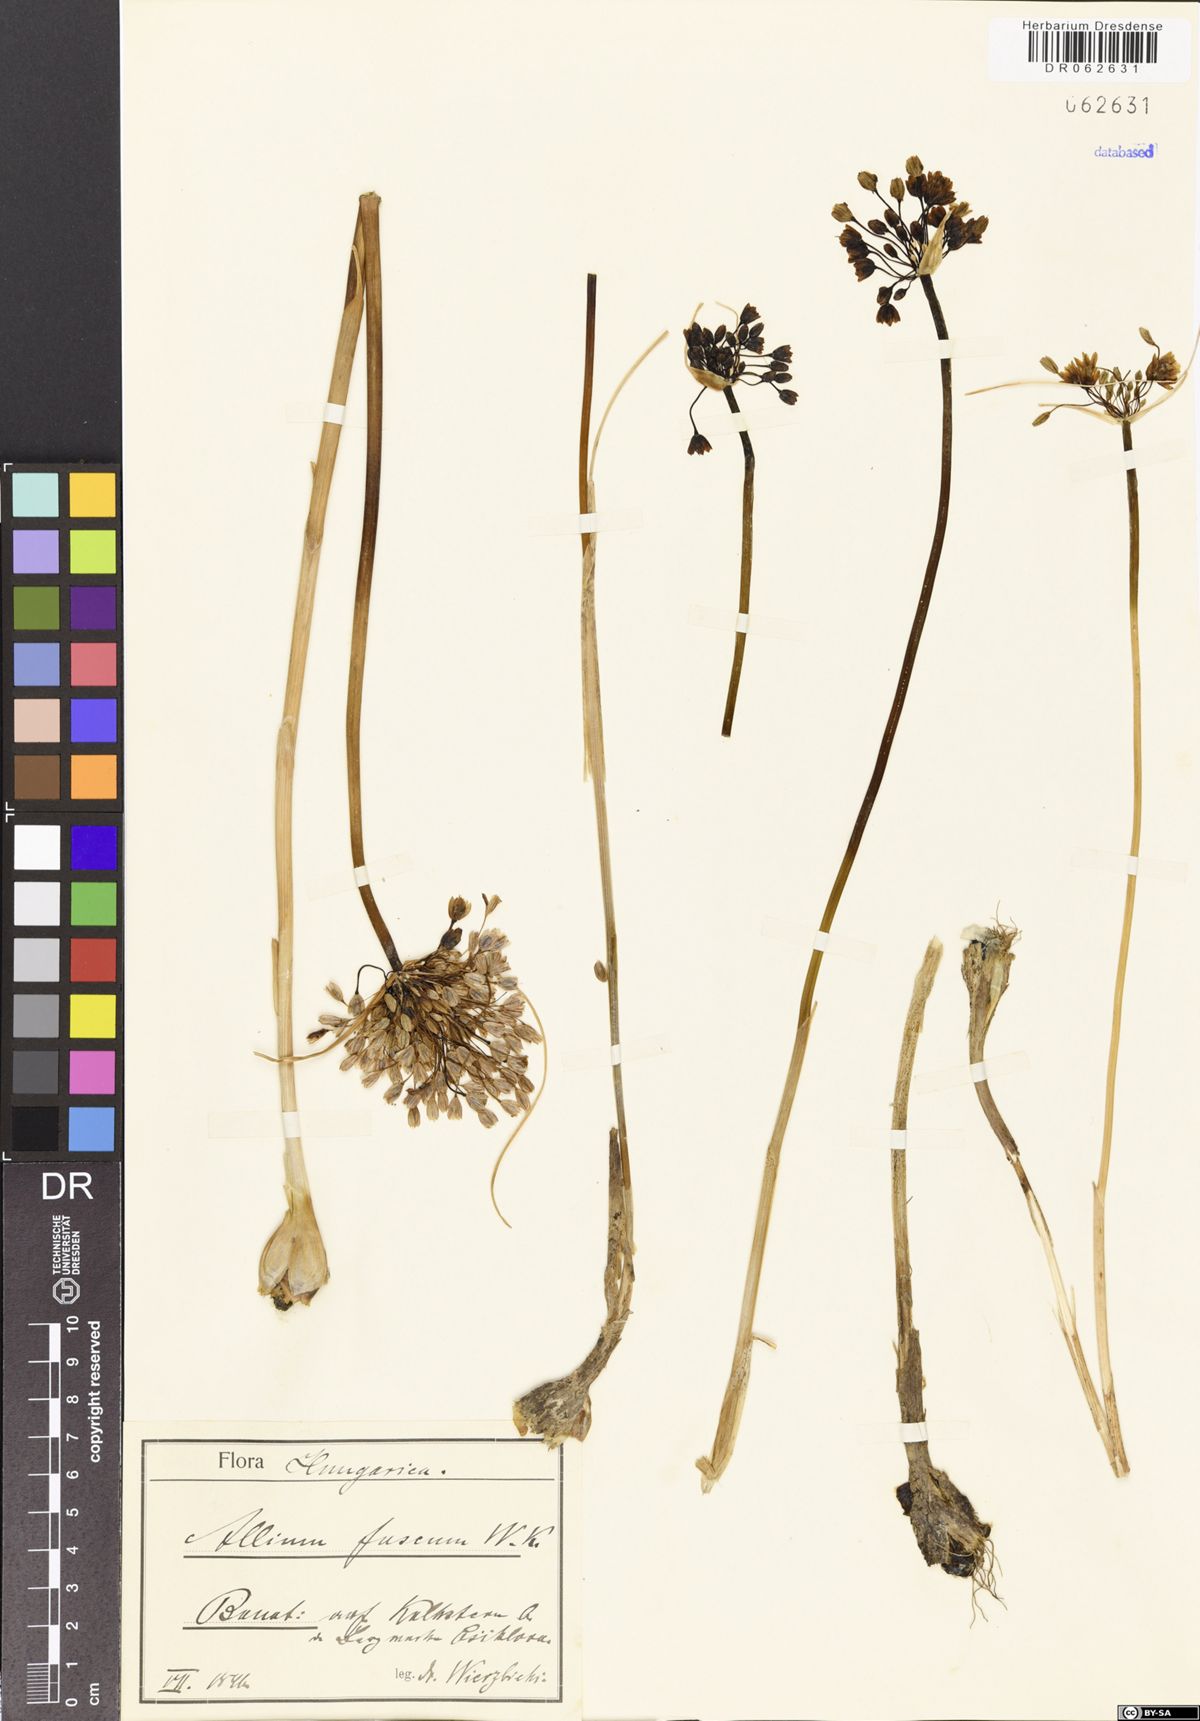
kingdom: Plantae
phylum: Tracheophyta
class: Liliopsida
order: Asparagales
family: Amaryllidaceae
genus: Allium
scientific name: Allium fuscum
